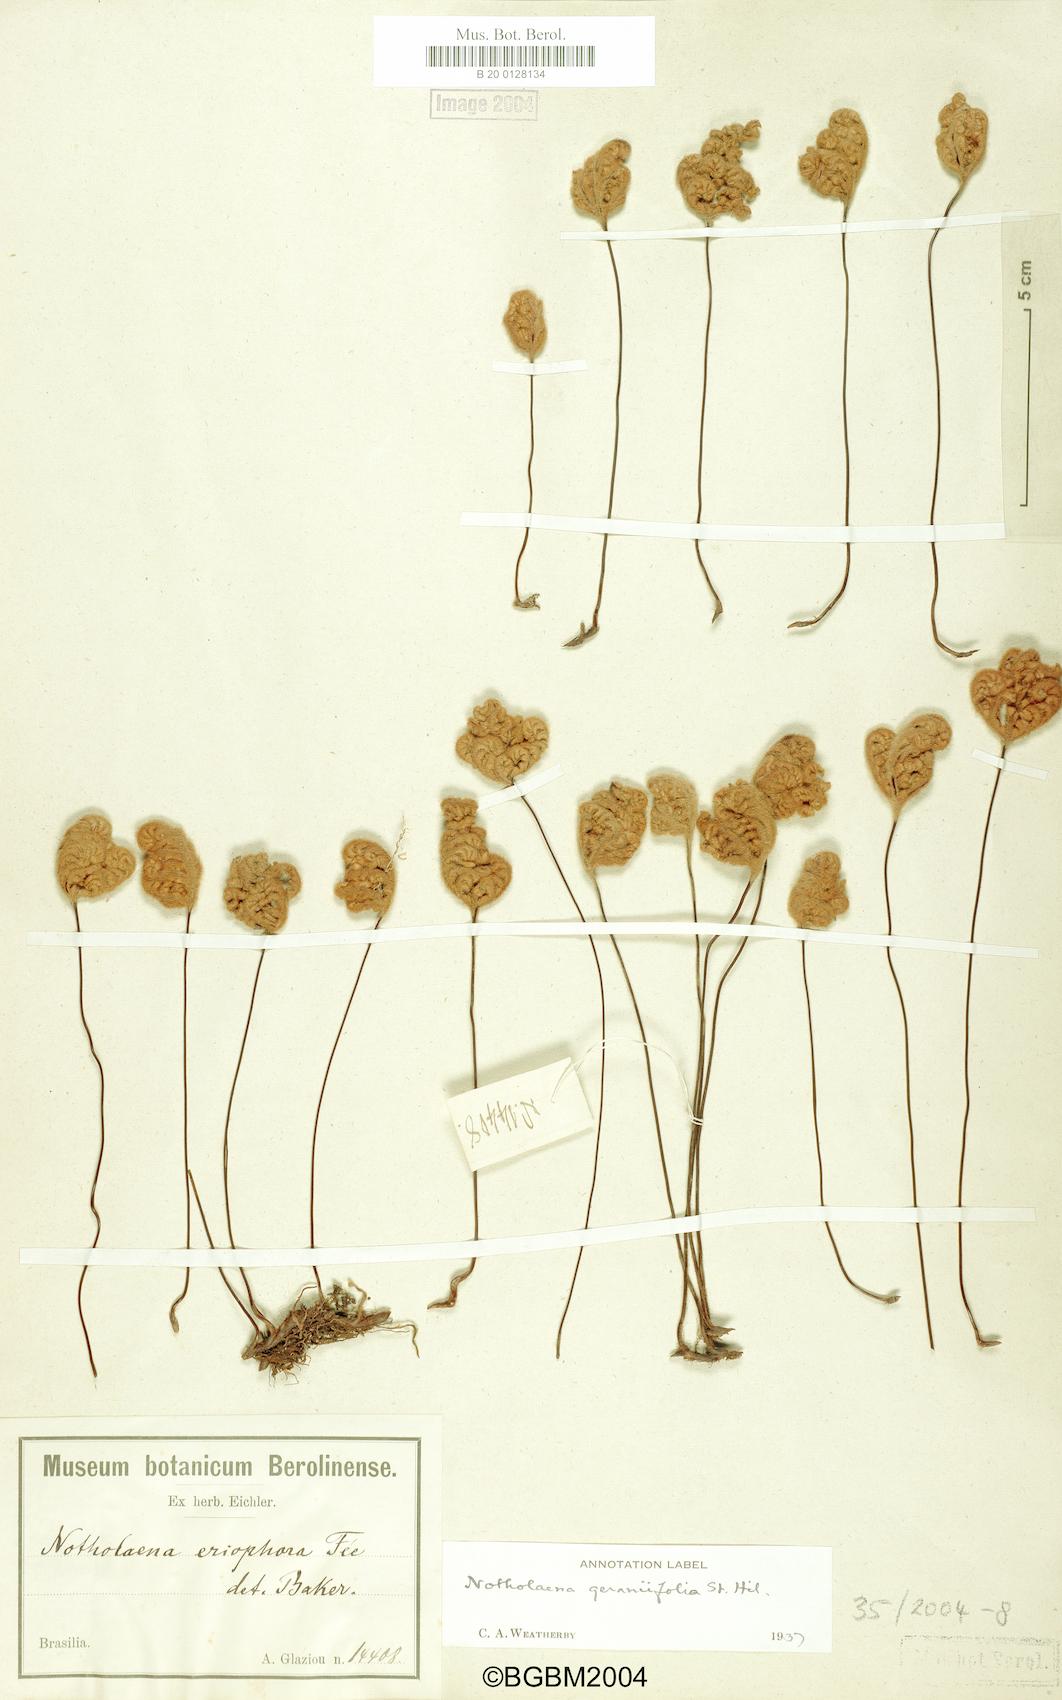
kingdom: Plantae
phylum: Tracheophyta
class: Polypodiopsida
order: Polypodiales
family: Pteridaceae
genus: Mineirella
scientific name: Mineirella eriophora
